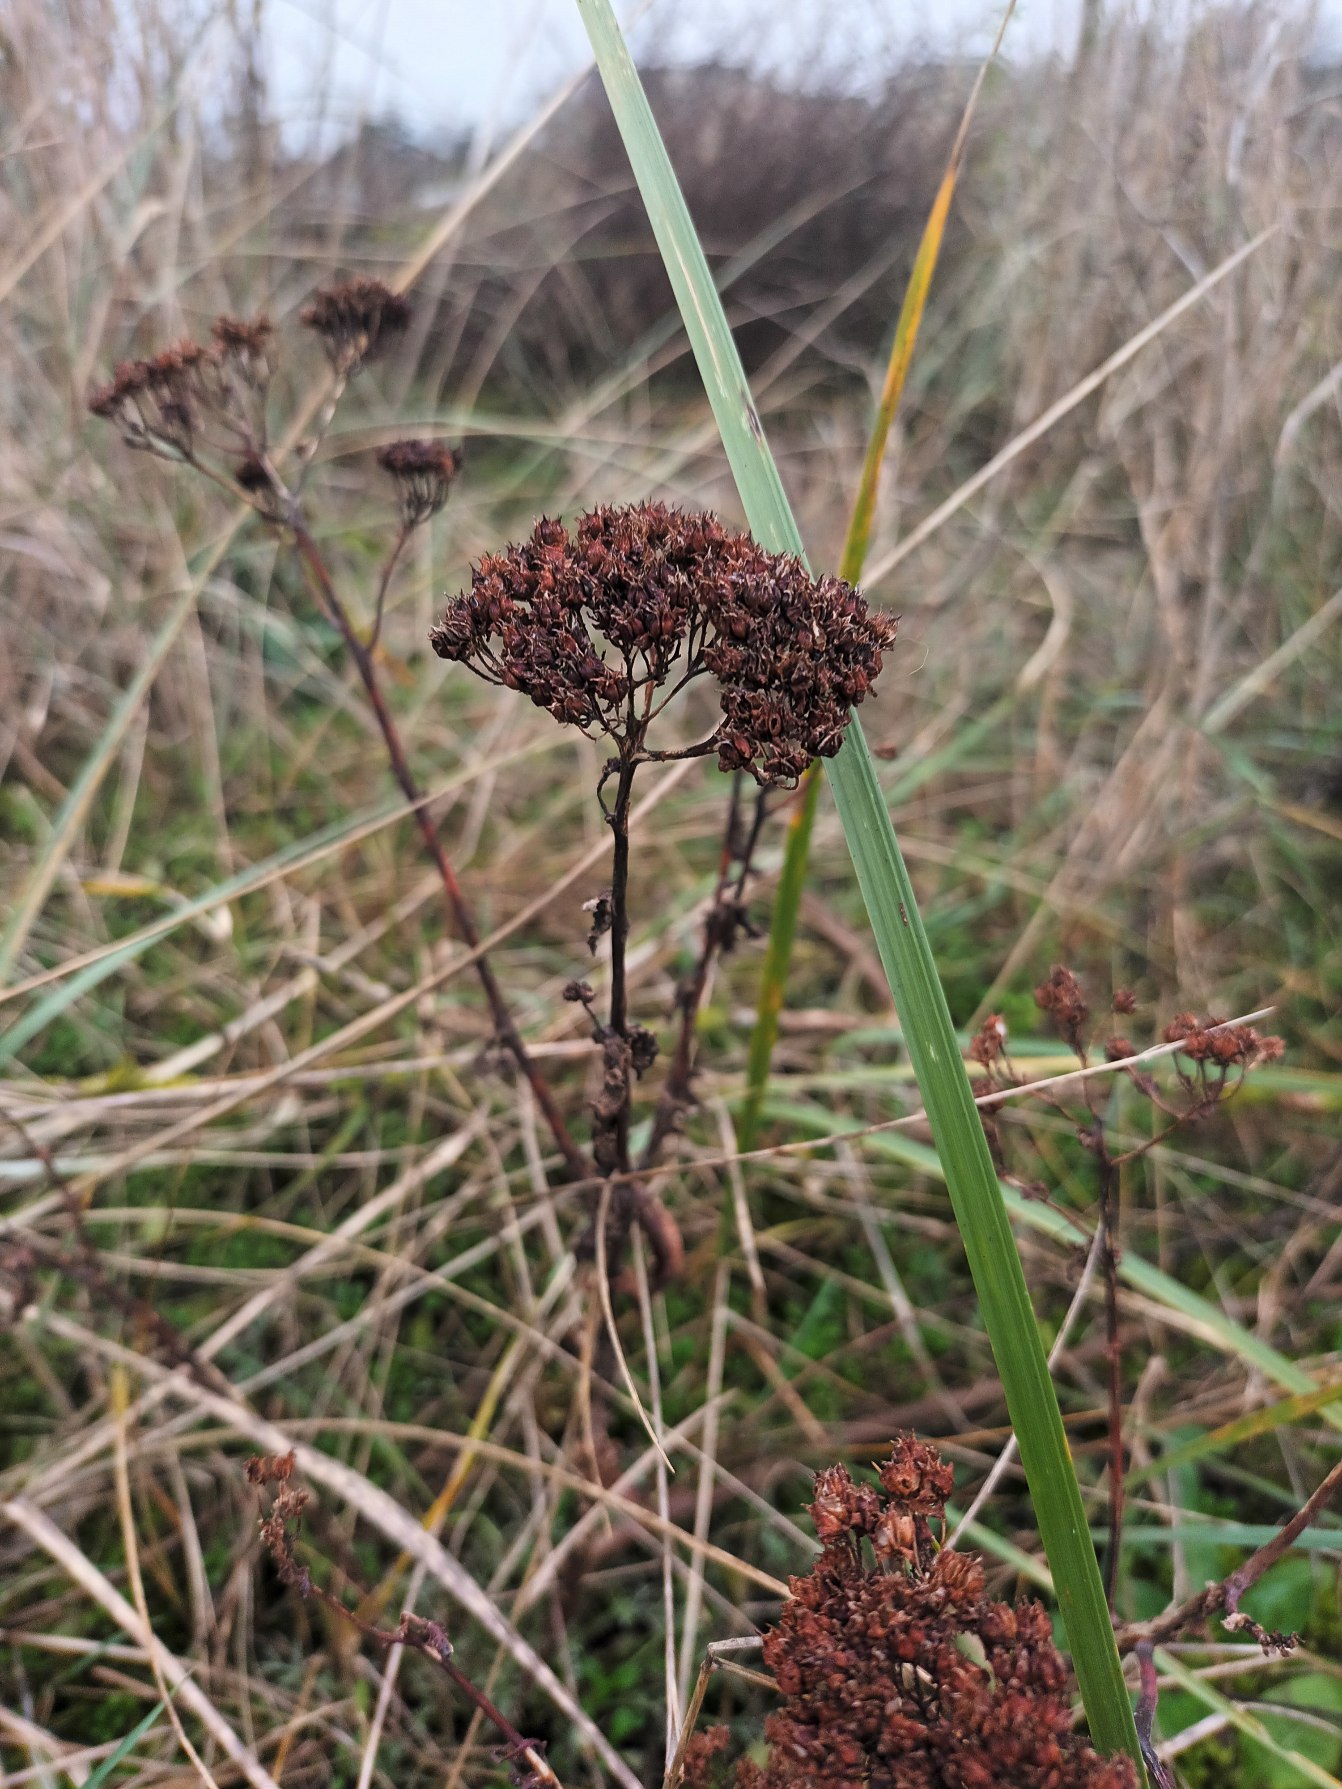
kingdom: Plantae
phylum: Tracheophyta
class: Magnoliopsida
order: Saxifragales
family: Crassulaceae
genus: Hylotelephium
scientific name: Hylotelephium maximum
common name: Almindelig sankthansurt
